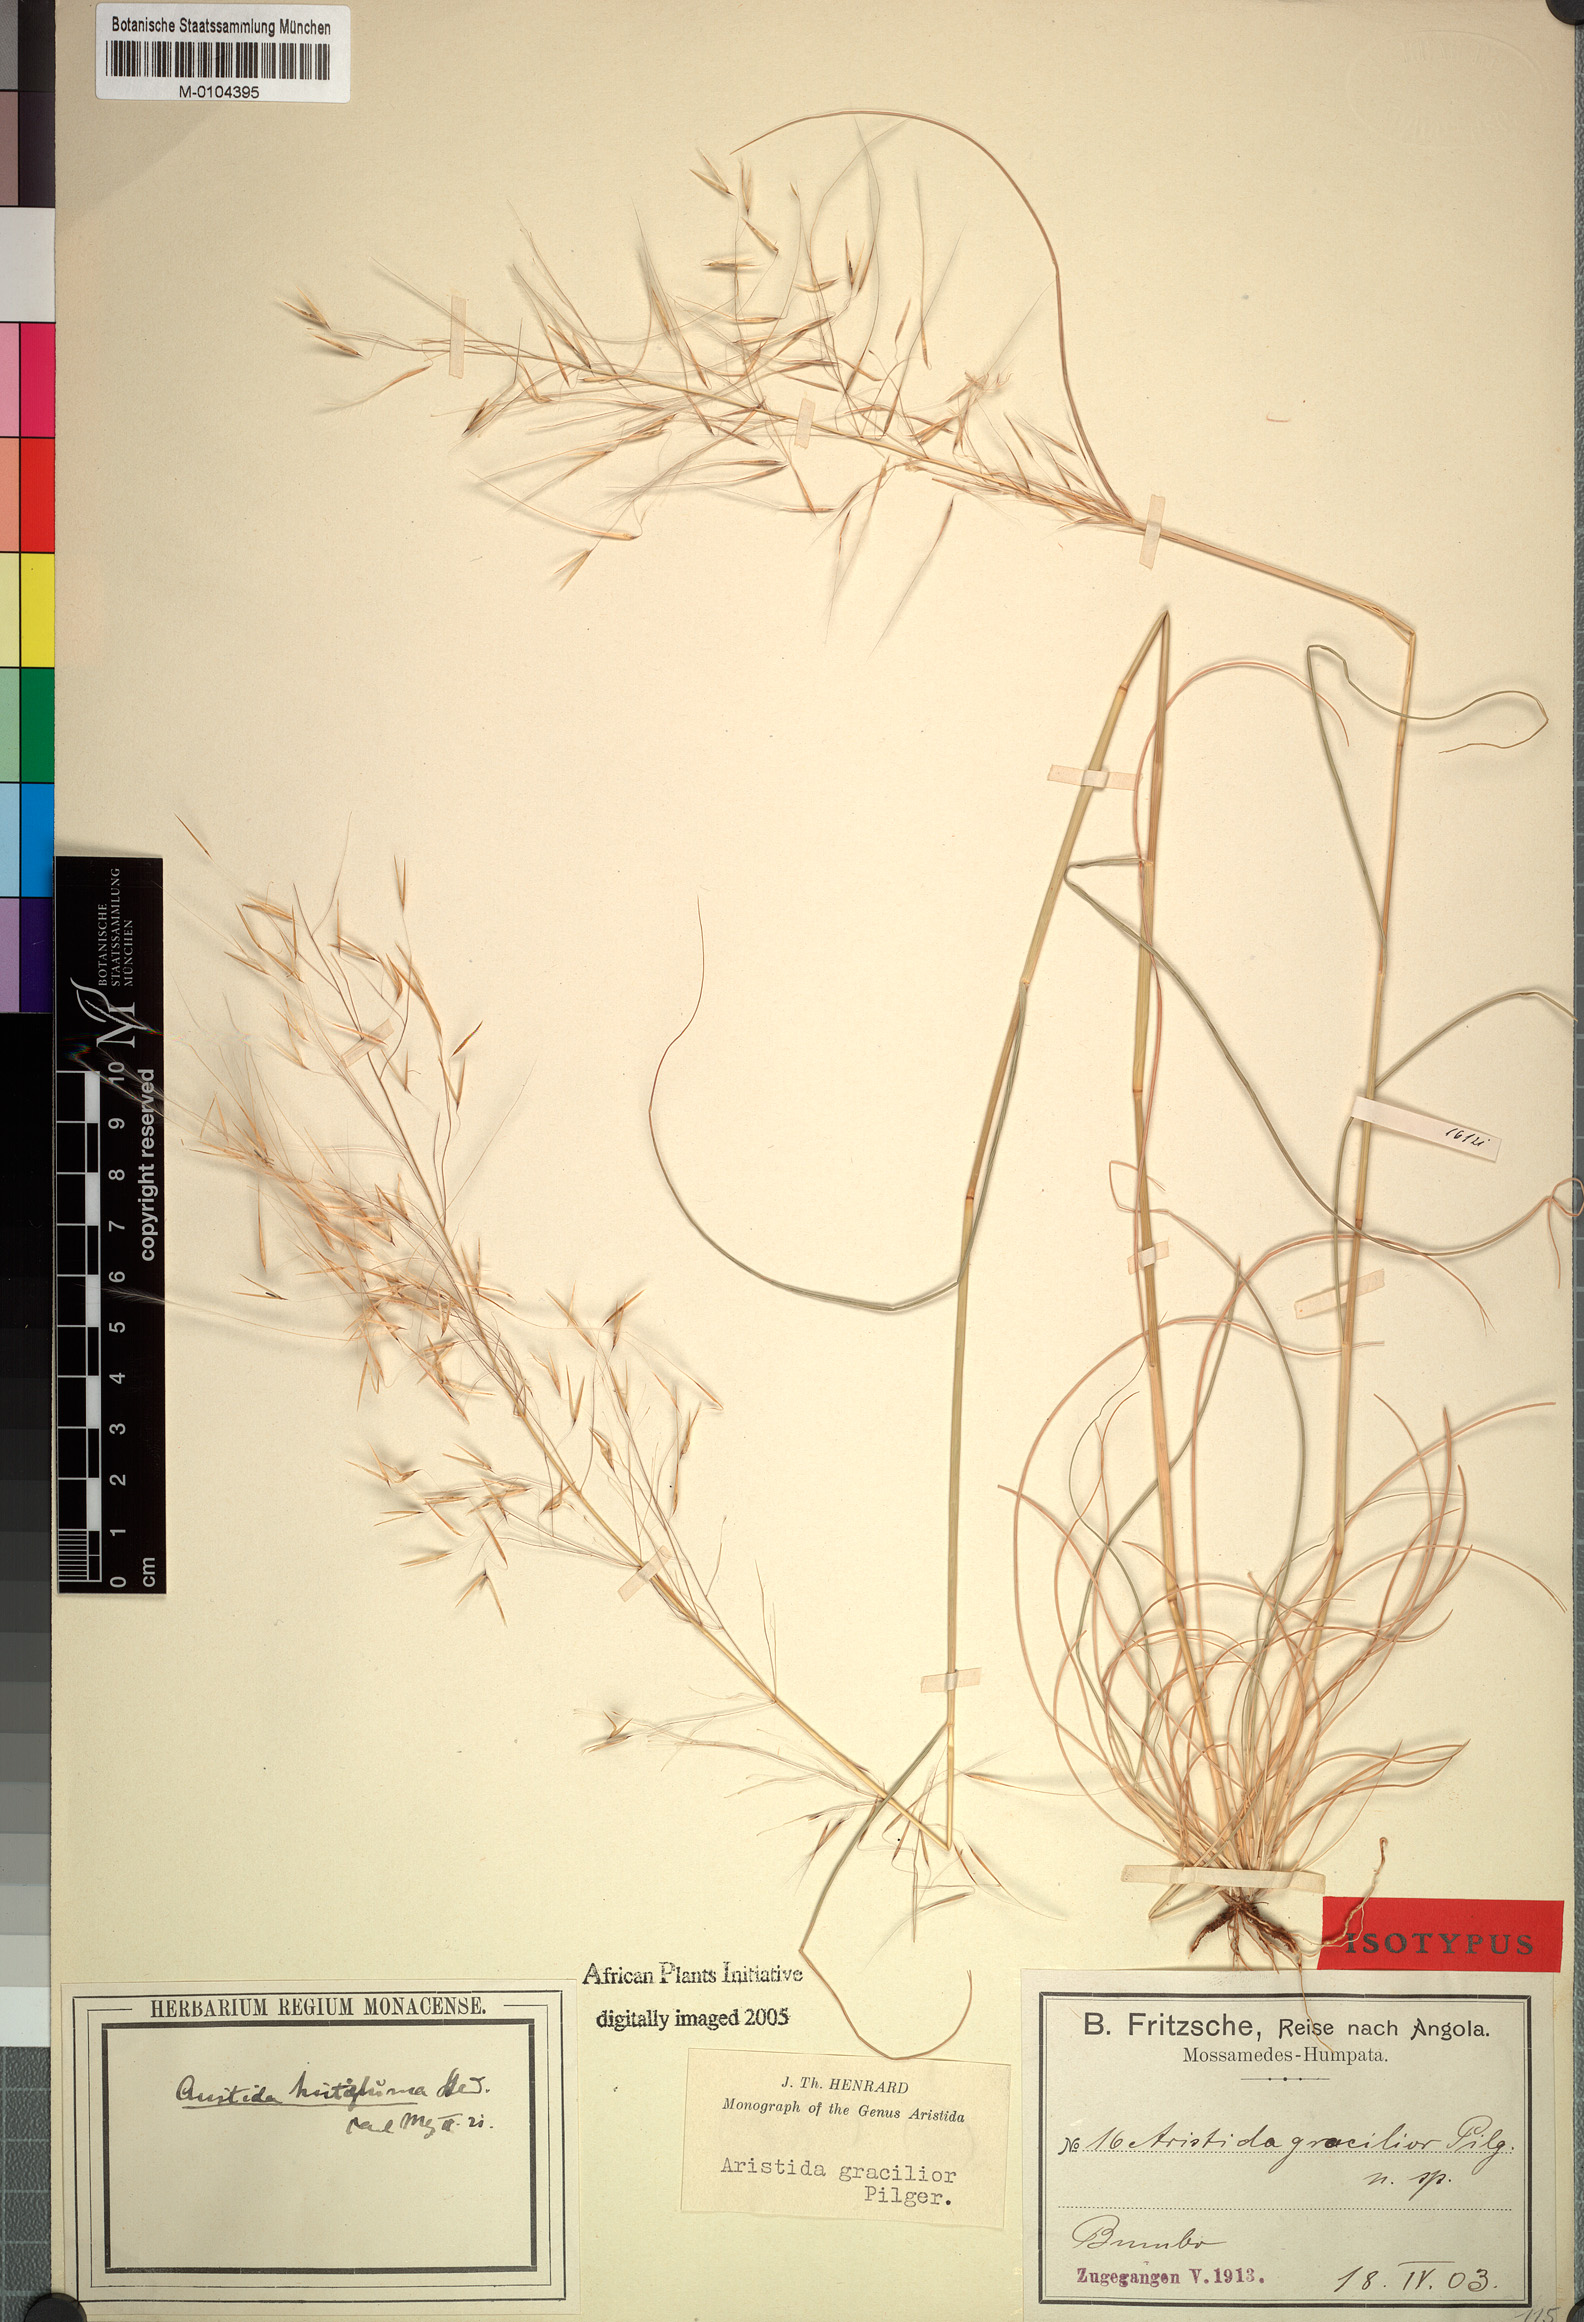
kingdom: Plantae
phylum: Tracheophyta
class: Liliopsida
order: Poales
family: Poaceae
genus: Stipagrostis
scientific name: Stipagrostis hirtigluma
